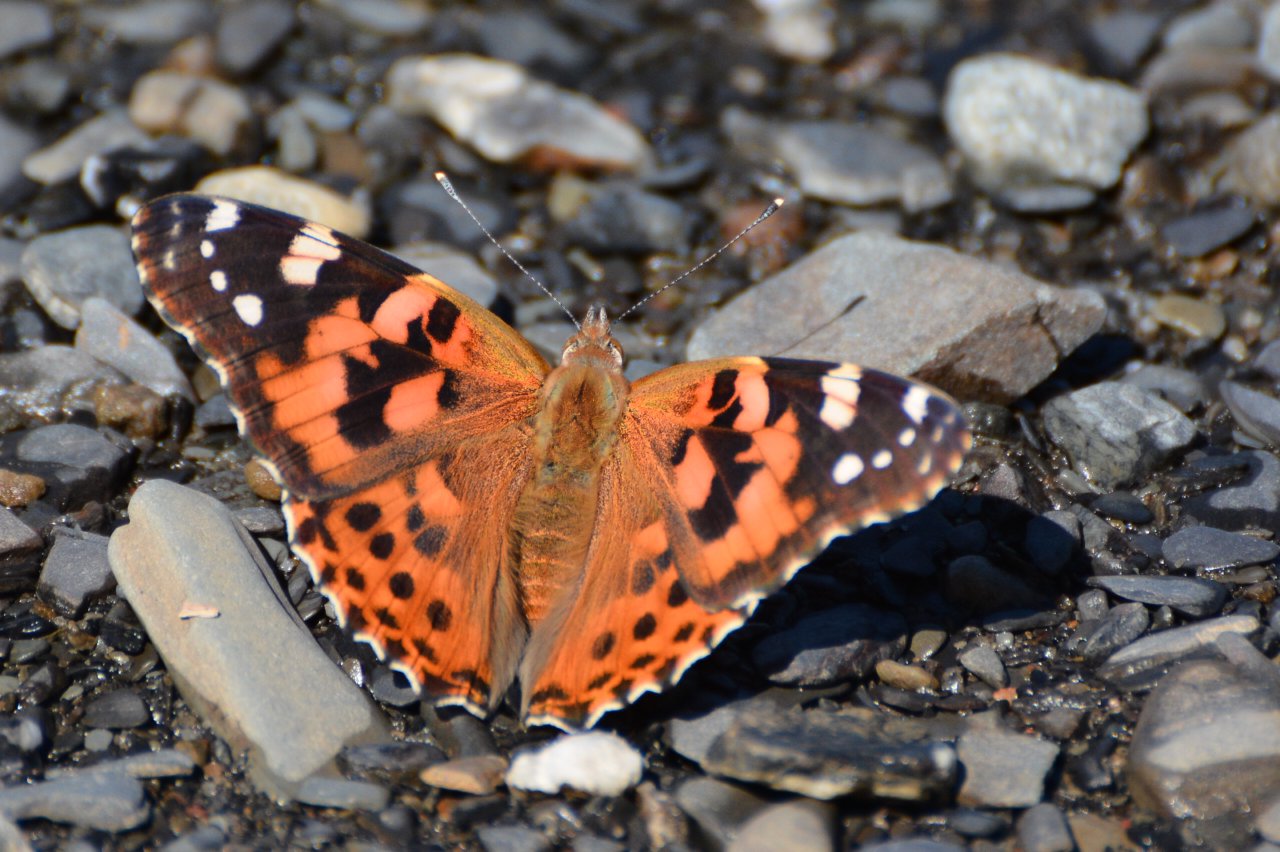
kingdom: Animalia
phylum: Arthropoda
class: Insecta
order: Lepidoptera
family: Nymphalidae
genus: Vanessa
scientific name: Vanessa cardui
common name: Painted Lady
